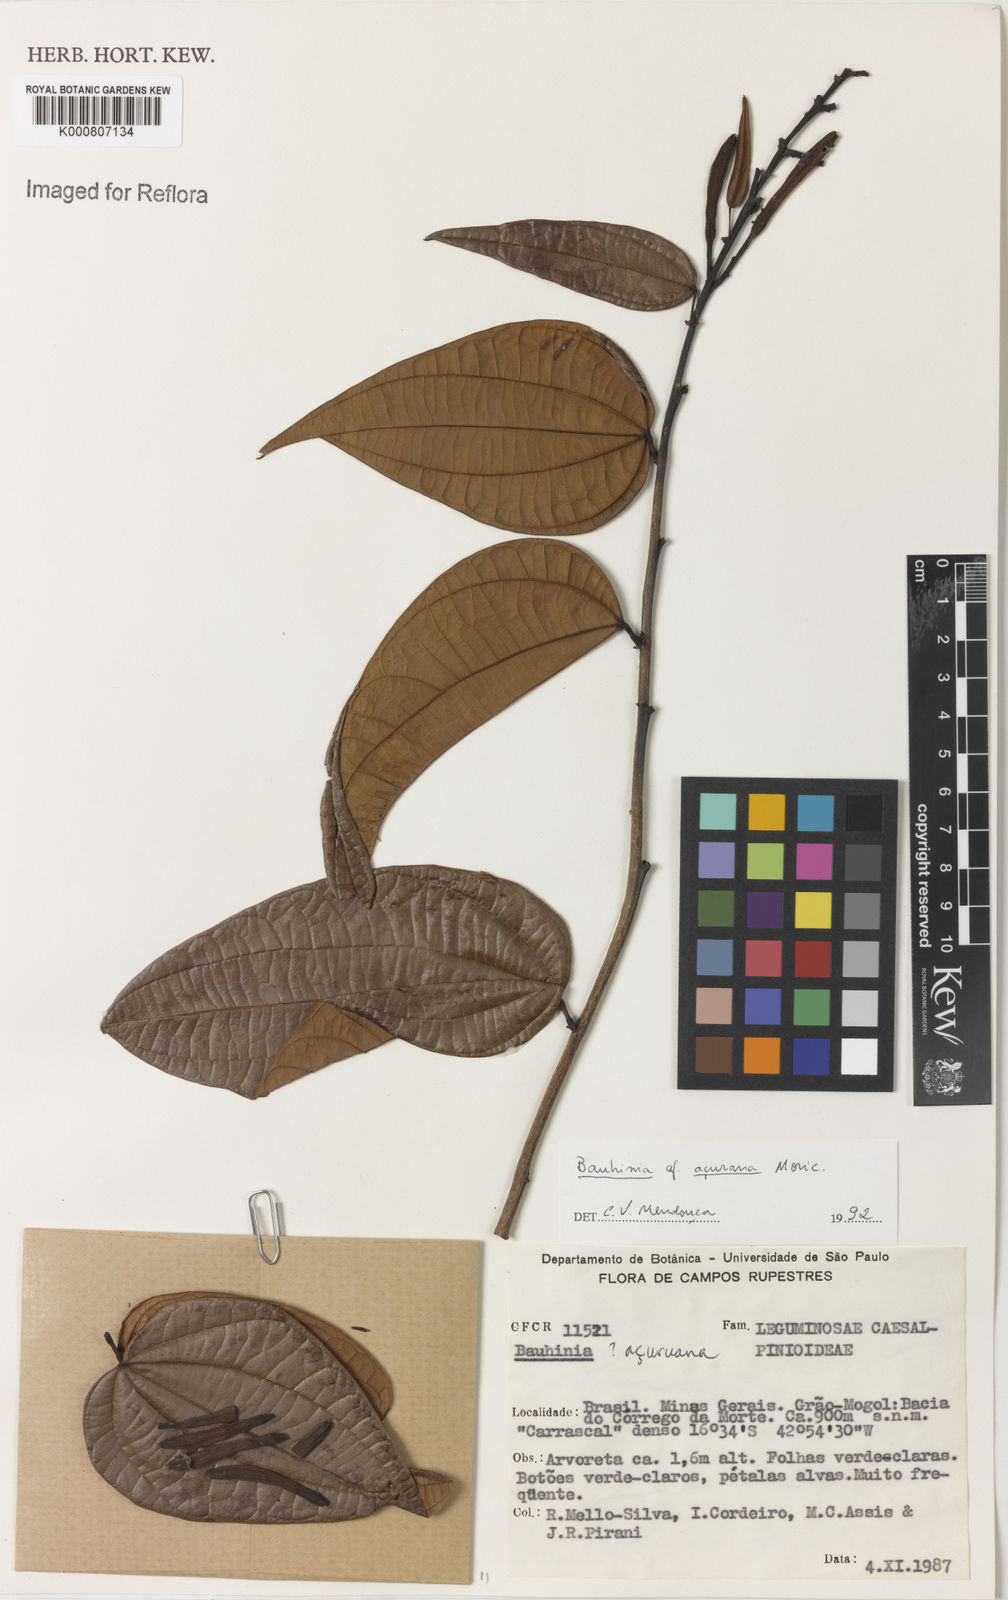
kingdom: Plantae
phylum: Tracheophyta
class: Magnoliopsida
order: Fabales
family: Fabaceae
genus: Bauhinia
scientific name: Bauhinia acuruana
